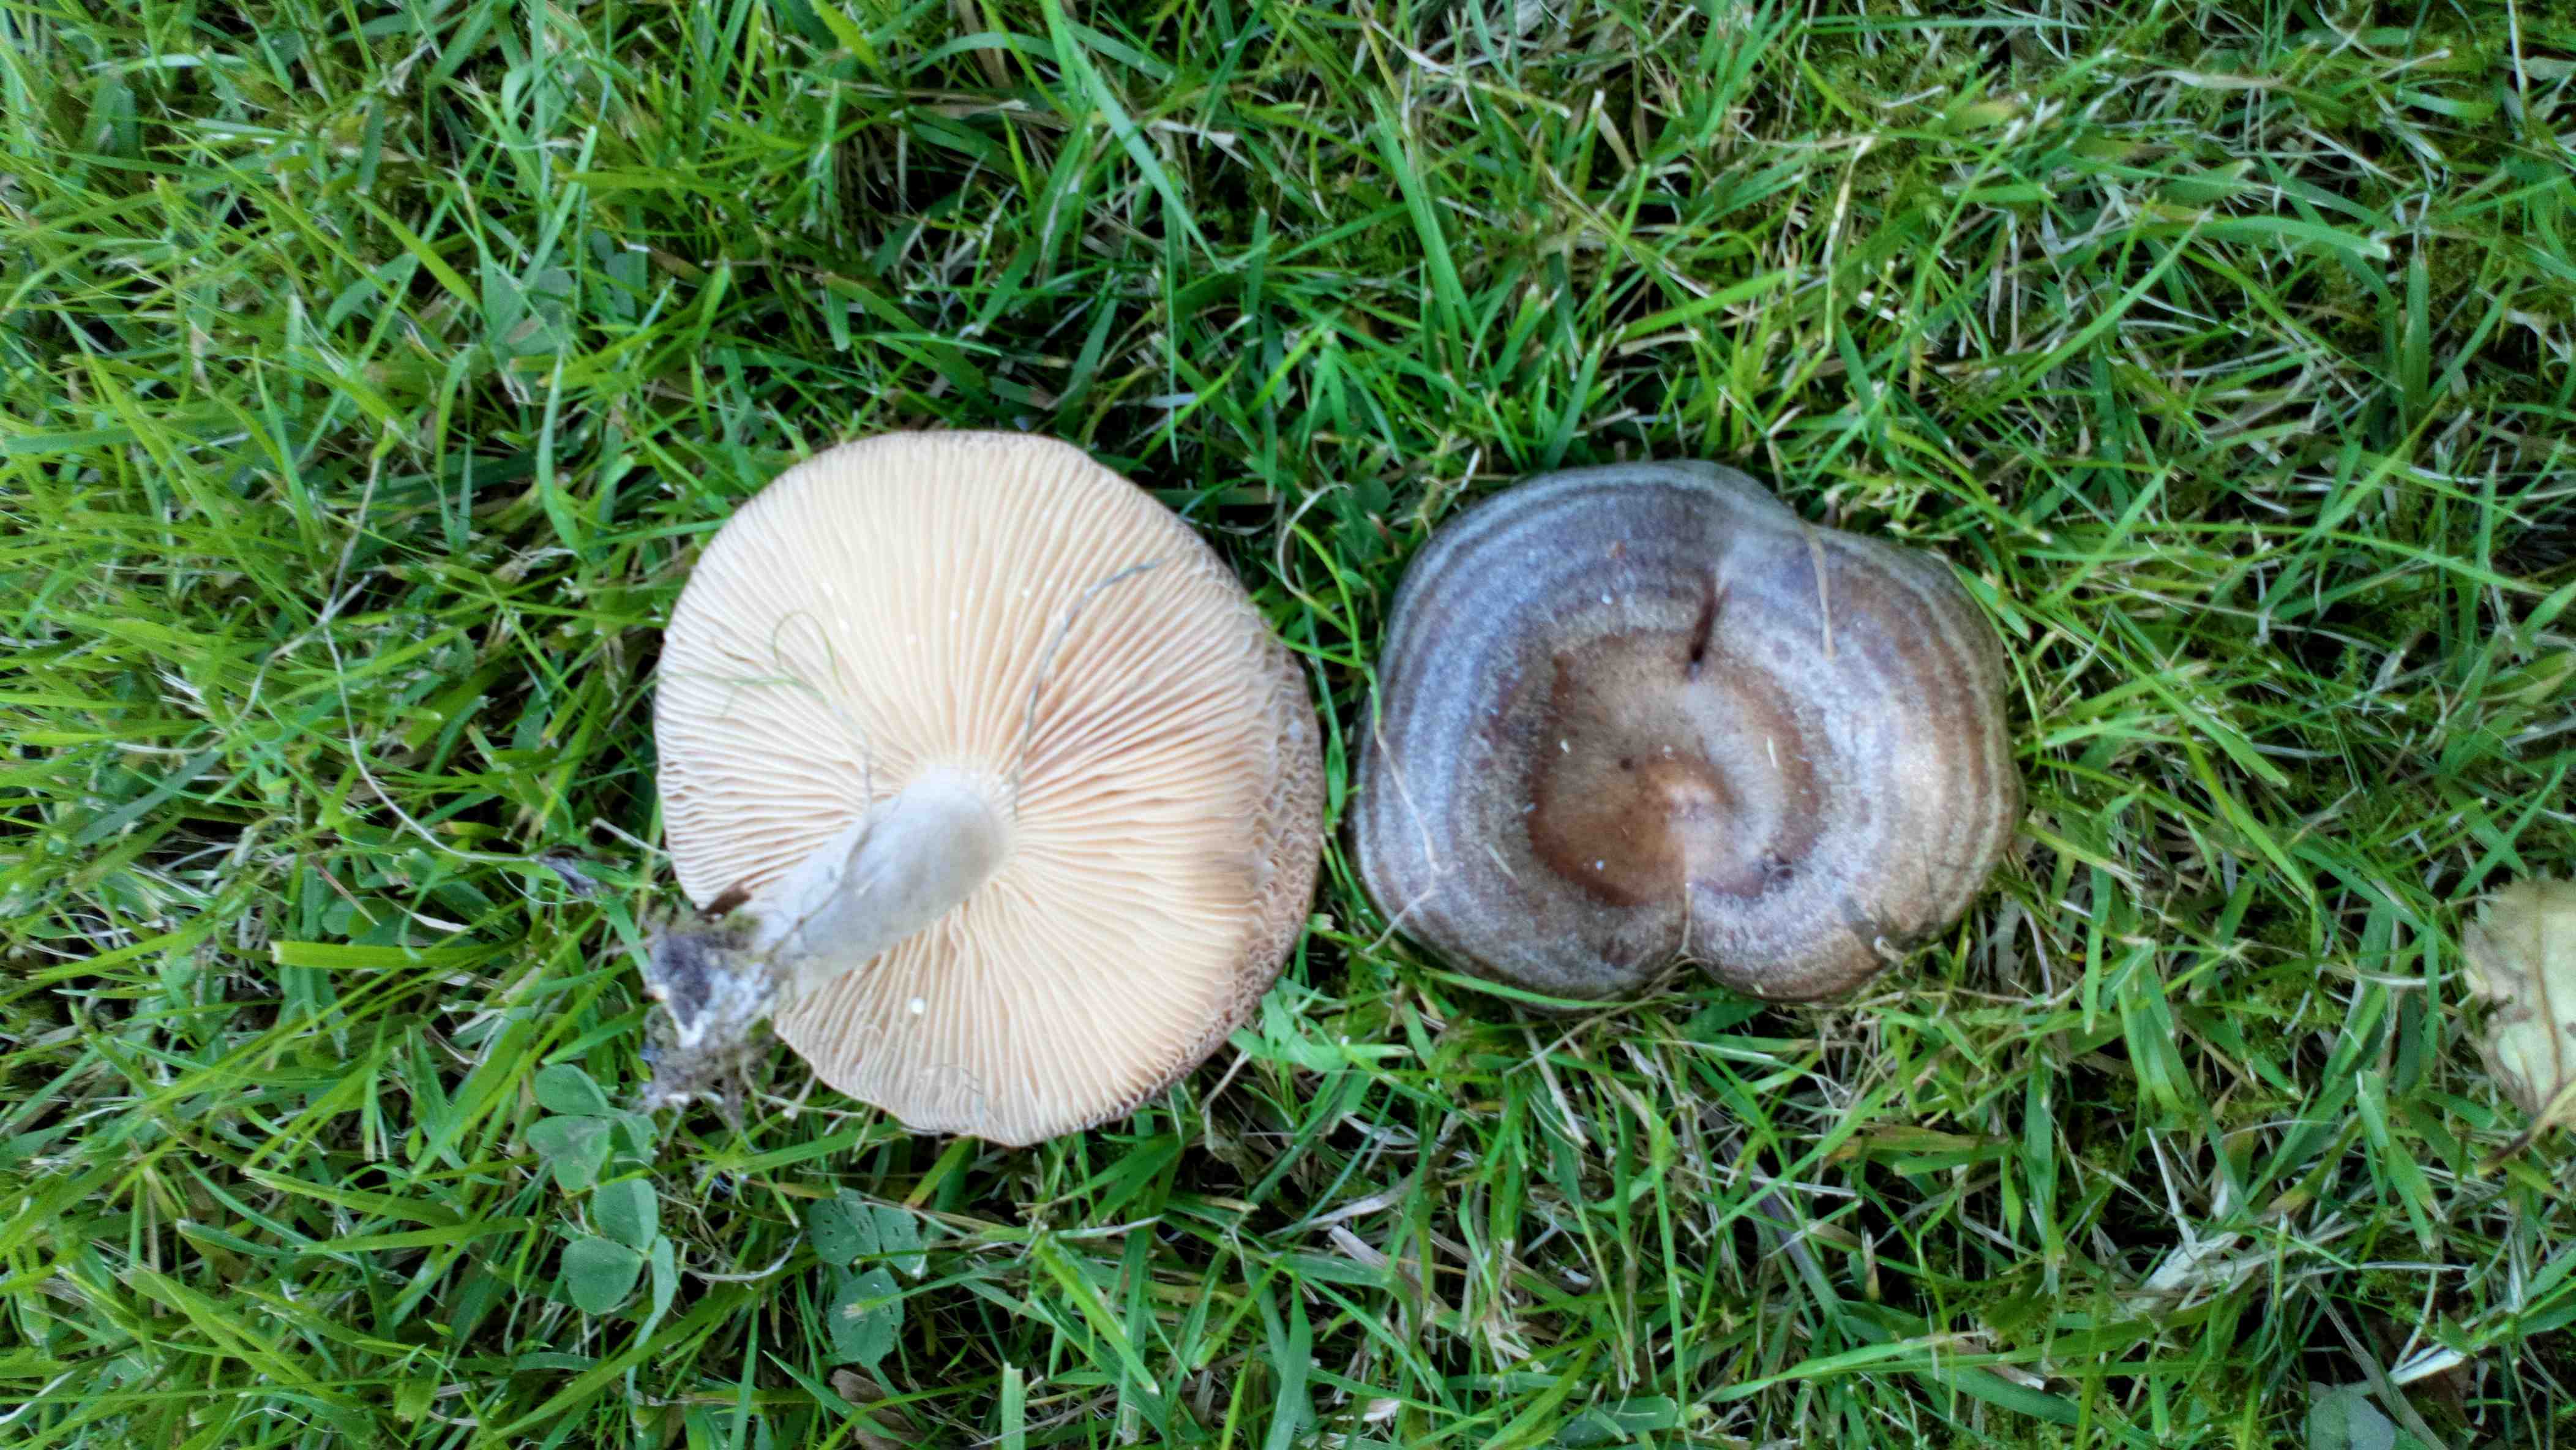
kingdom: Fungi
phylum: Basidiomycota
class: Agaricomycetes
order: Russulales
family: Russulaceae
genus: Lactarius
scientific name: Lactarius circellatus
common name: avnbøg-mælkehat
